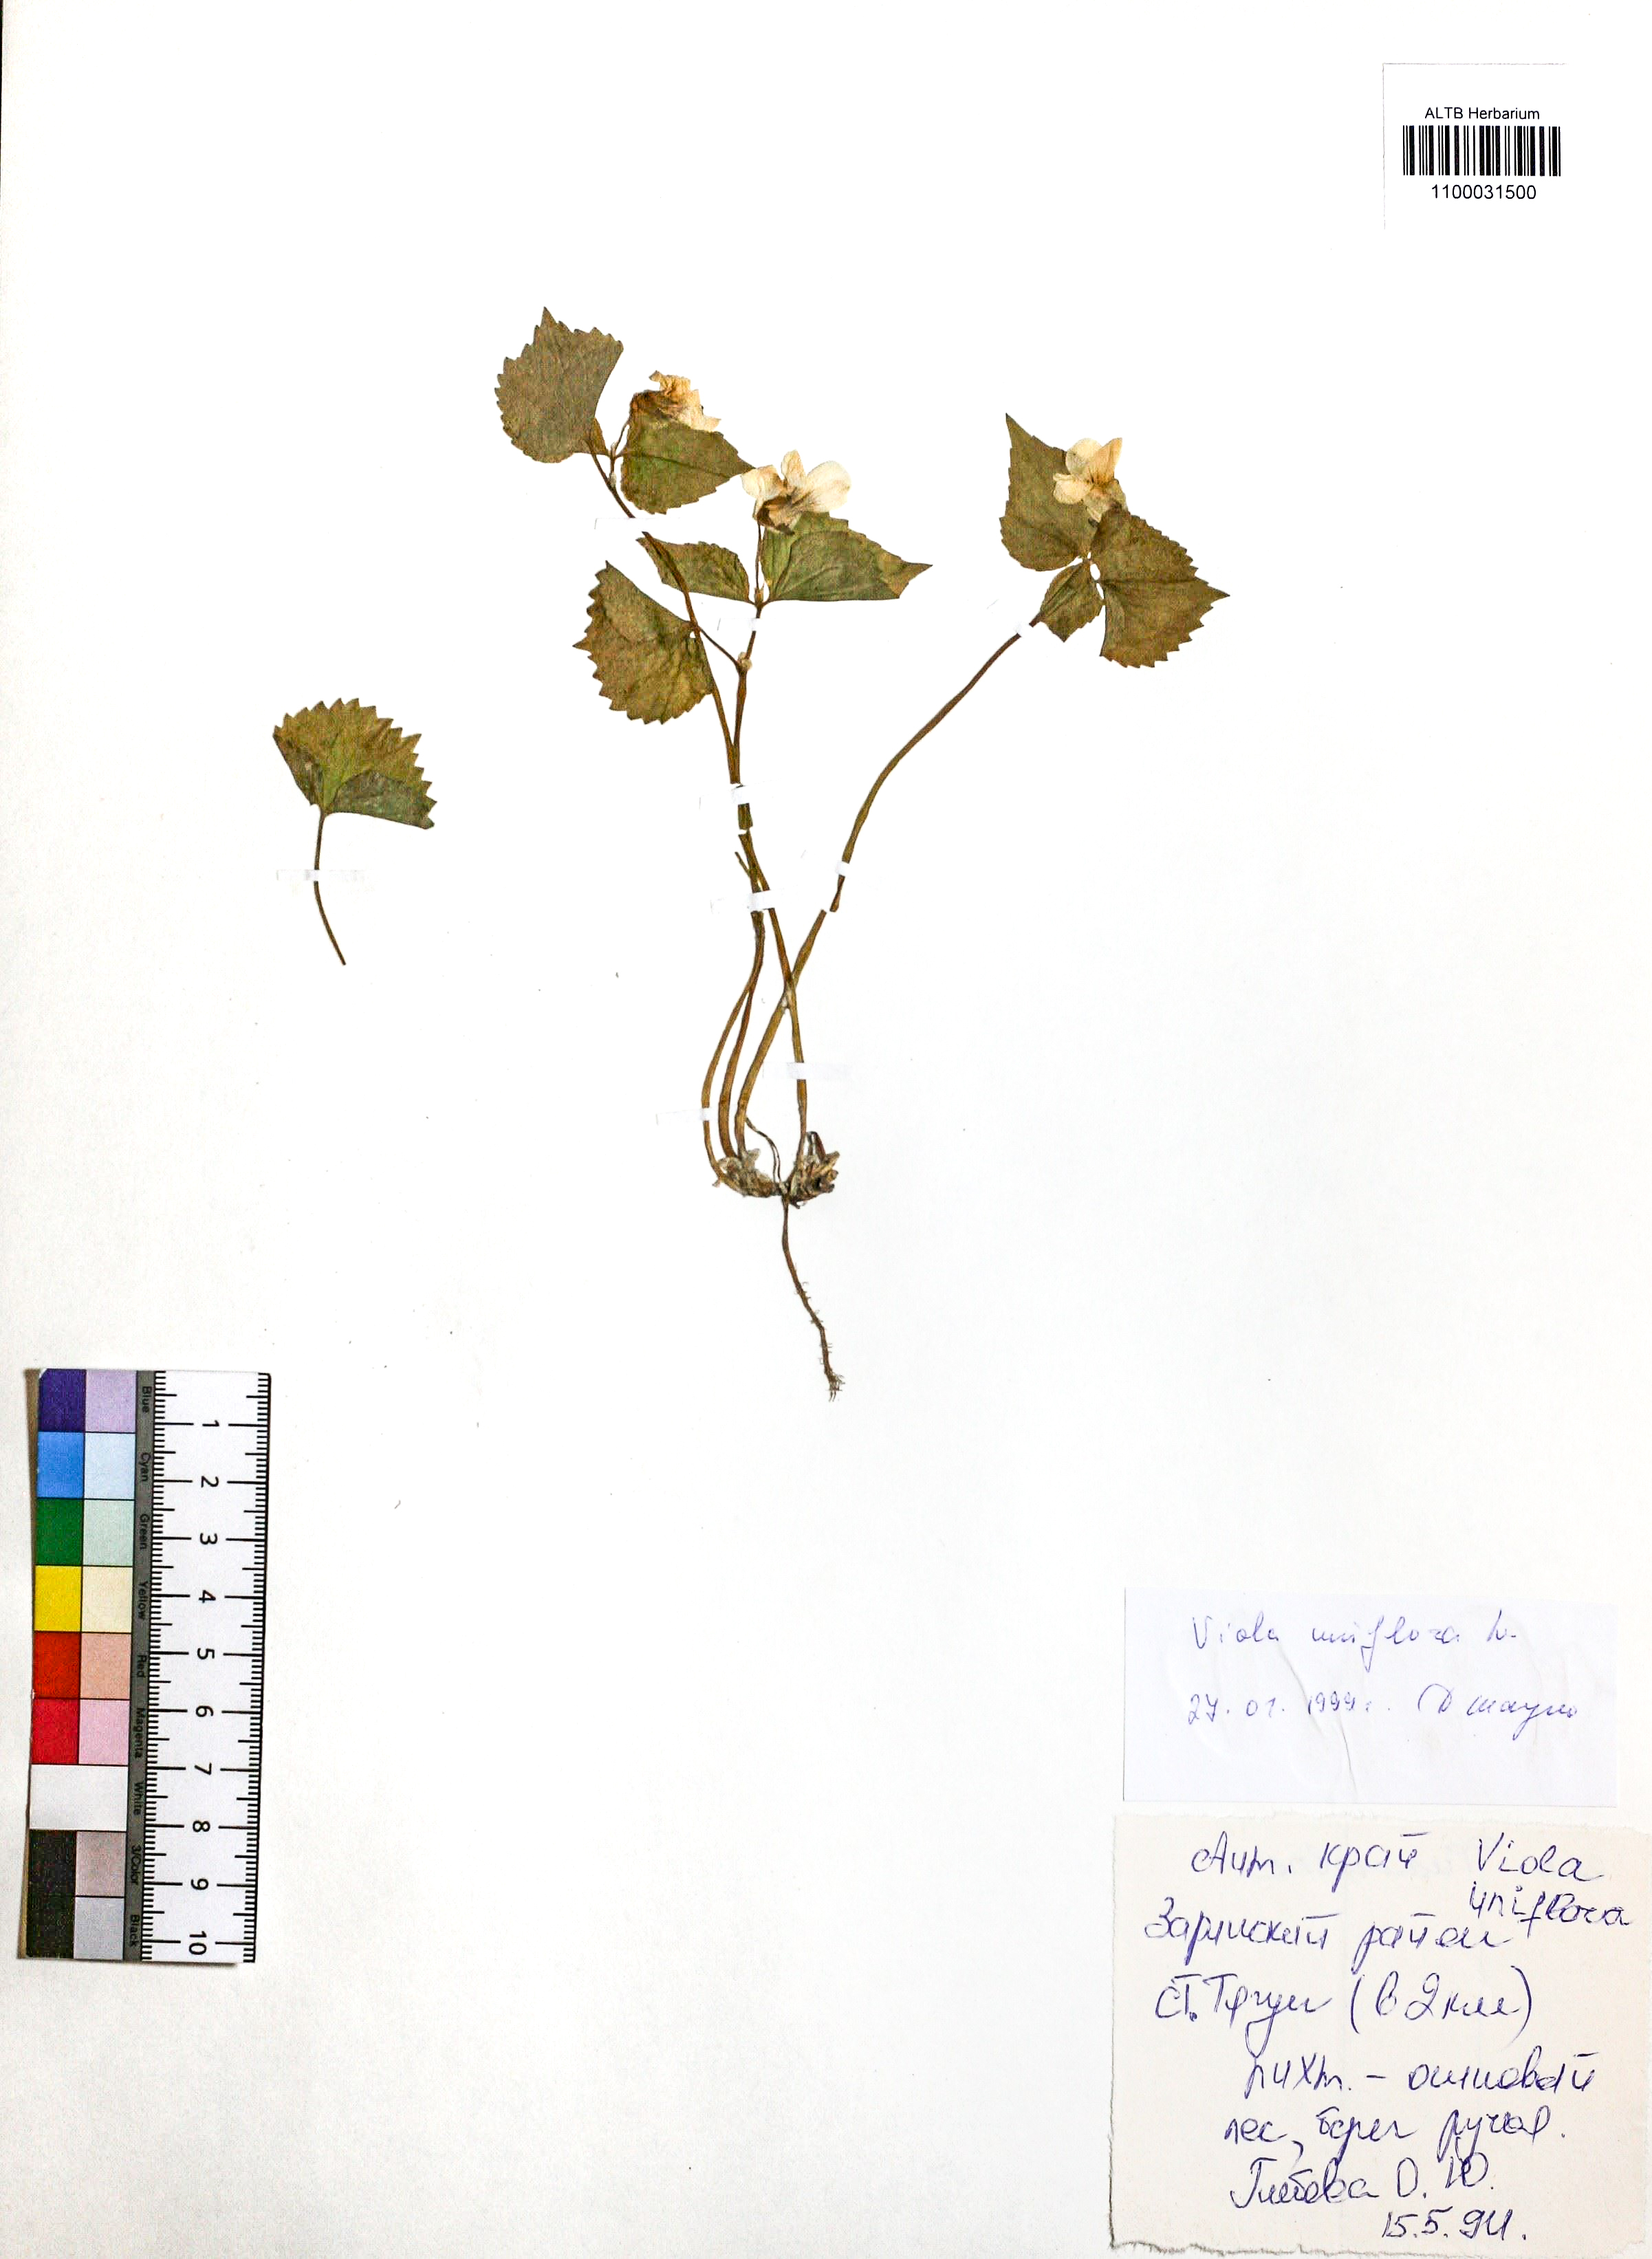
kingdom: Plantae
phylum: Tracheophyta
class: Magnoliopsida
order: Malpighiales
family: Violaceae
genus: Viola
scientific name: Viola uniflora
